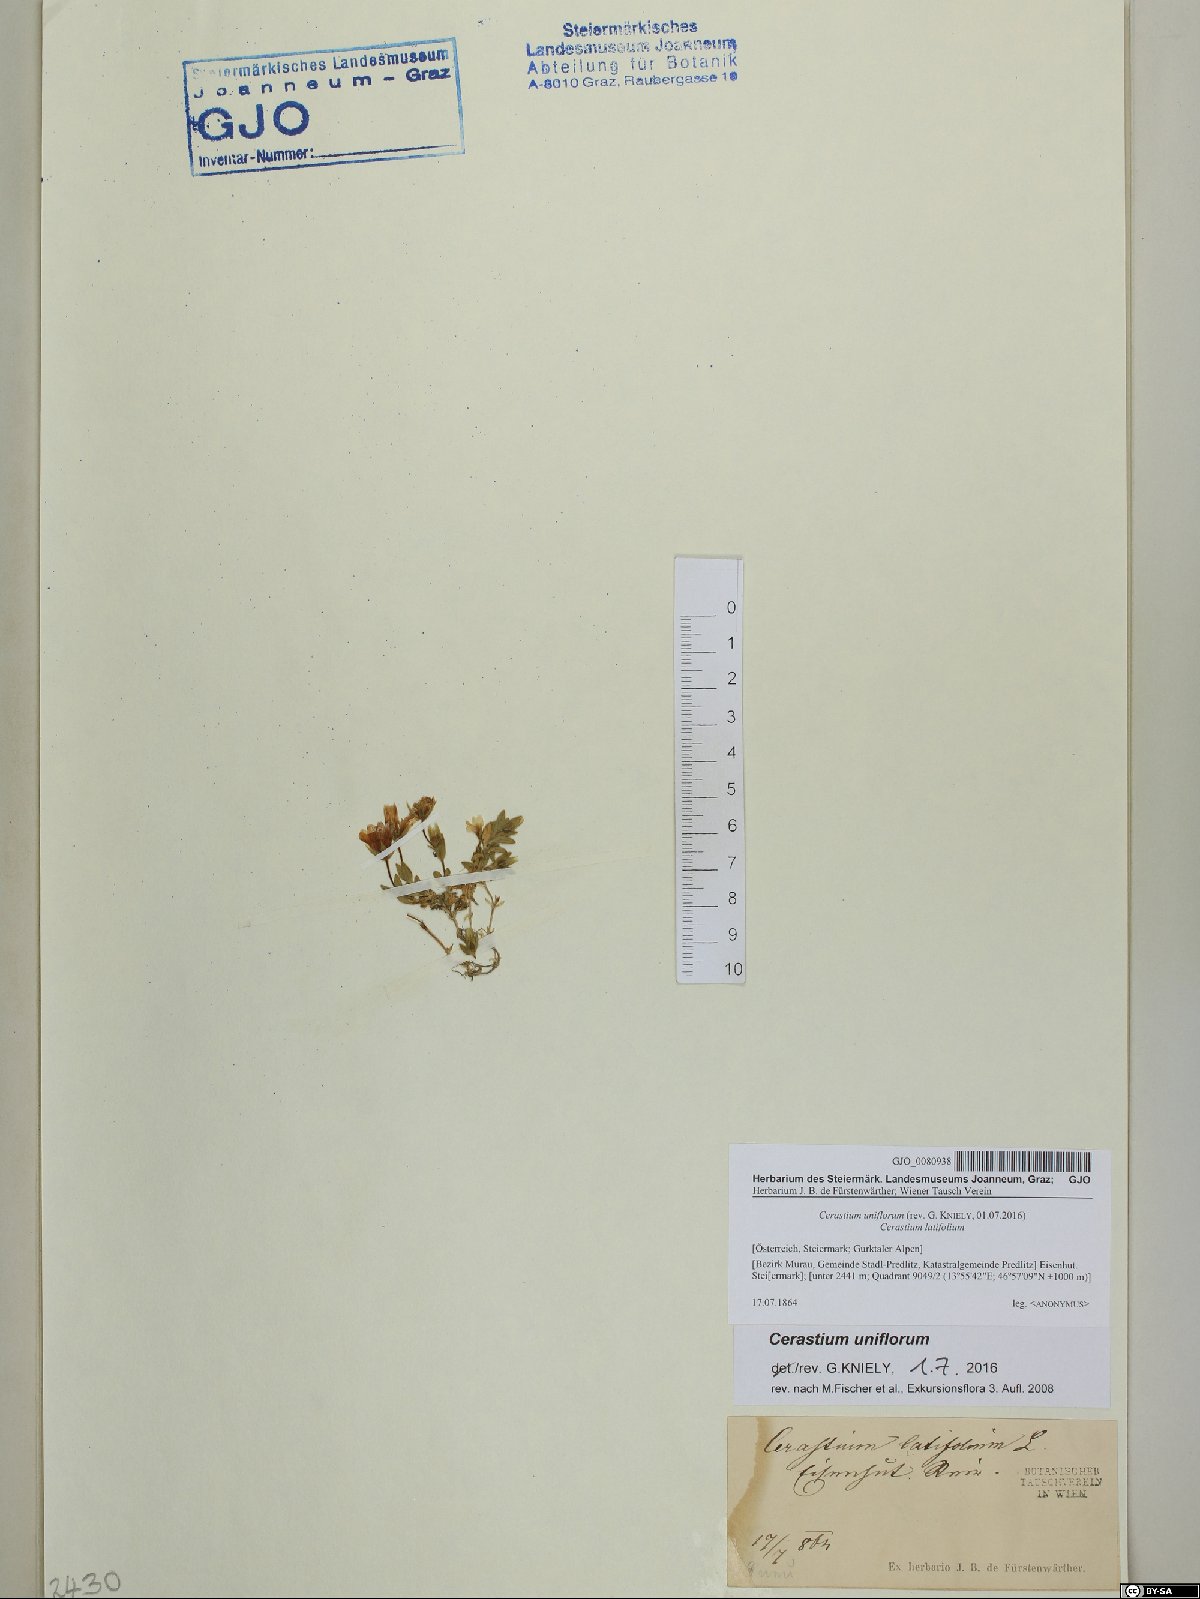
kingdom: Plantae
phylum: Tracheophyta
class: Magnoliopsida
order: Caryophyllales
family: Caryophyllaceae
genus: Cerastium
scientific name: Cerastium uniflorum
